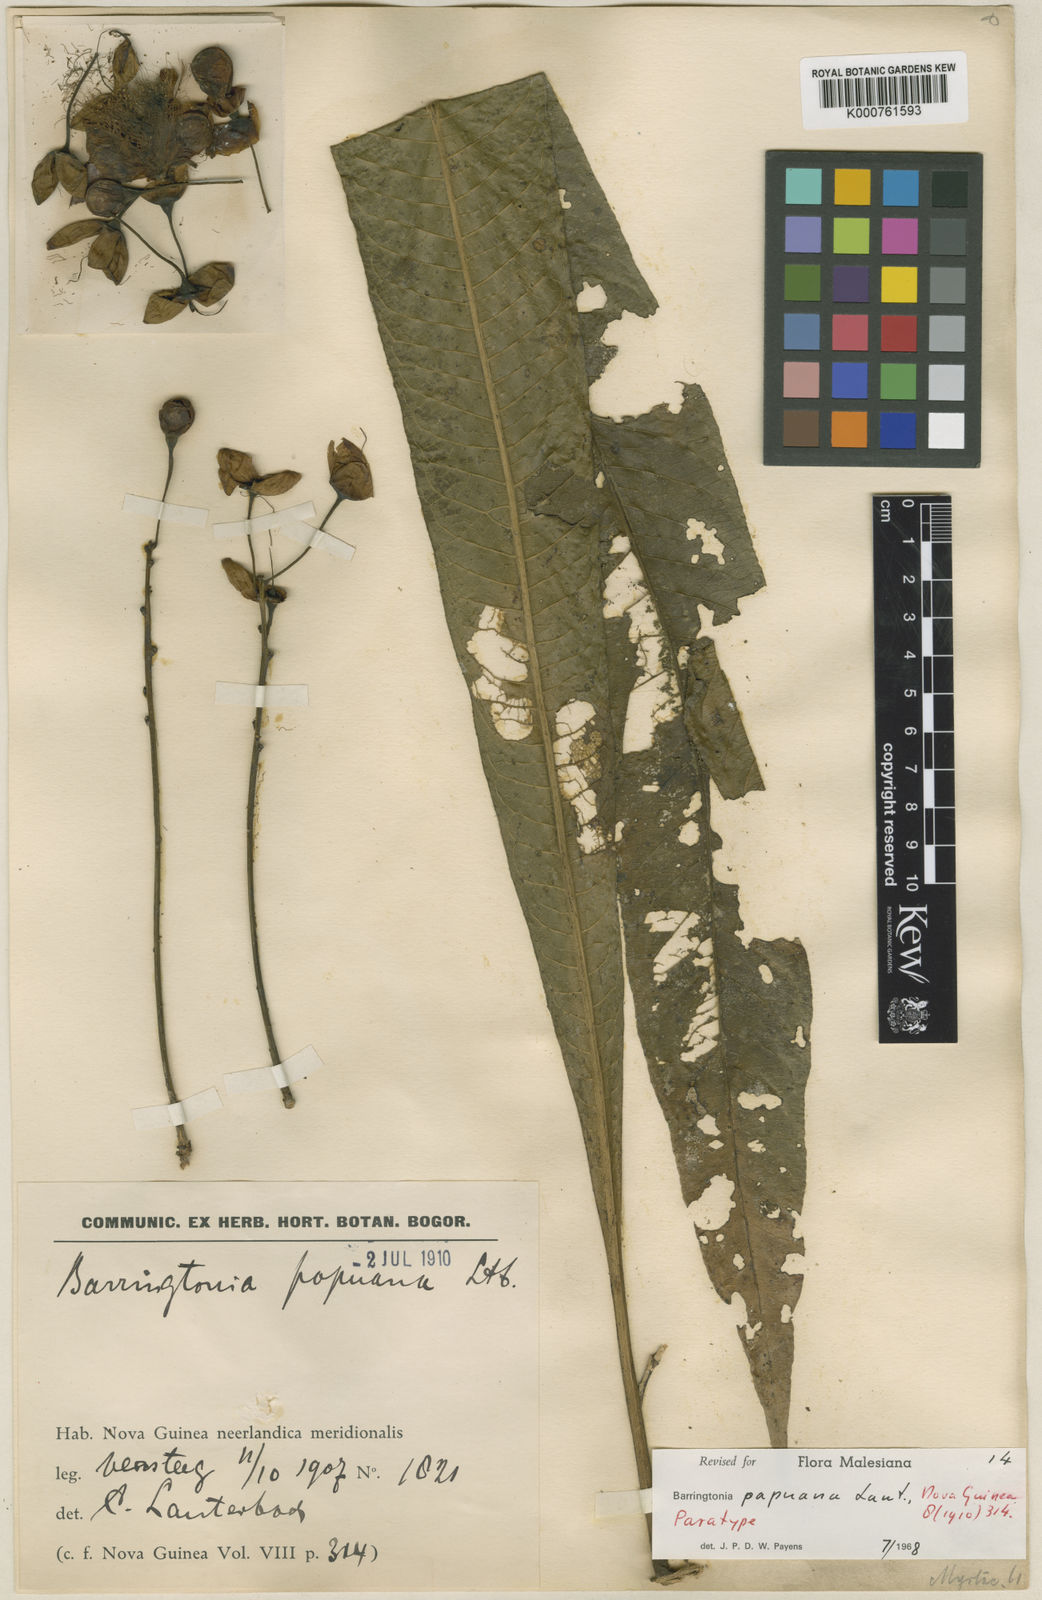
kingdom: Plantae
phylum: Tracheophyta
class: Magnoliopsida
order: Ericales
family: Lecythidaceae
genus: Barringtonia
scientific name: Barringtonia papuana
